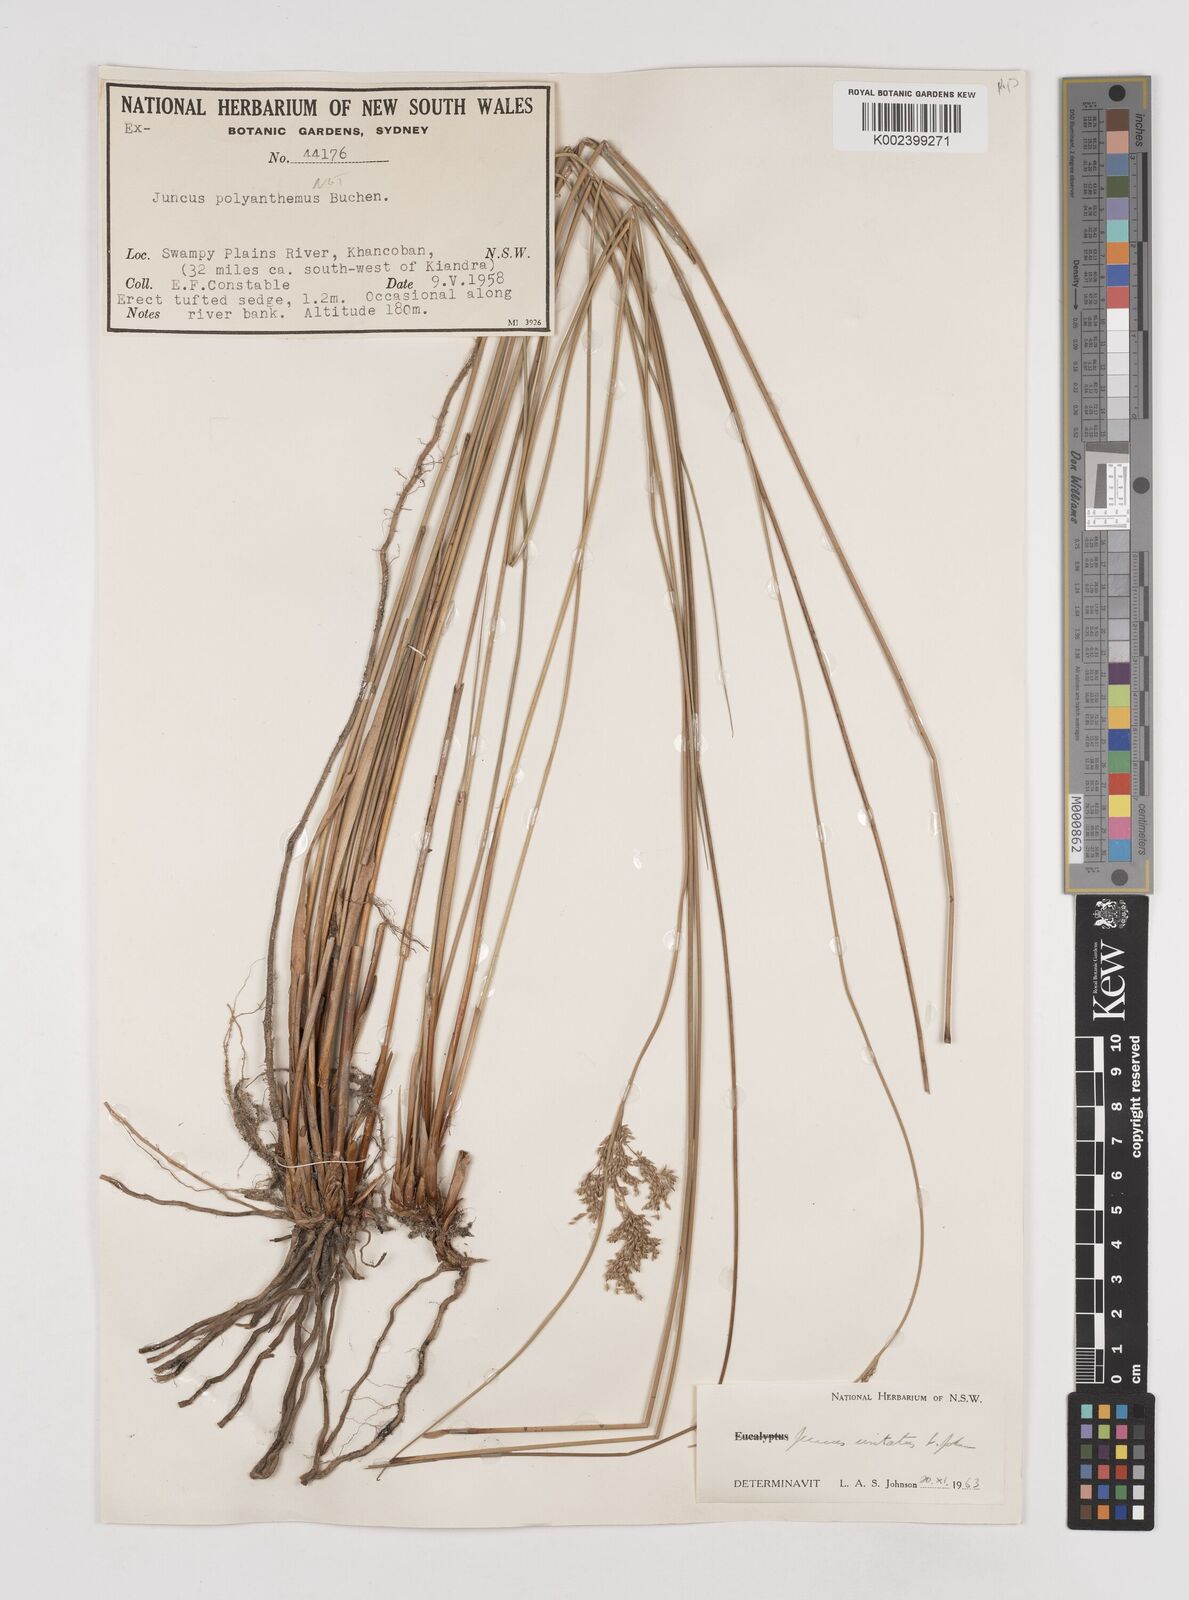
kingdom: Plantae
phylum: Tracheophyta
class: Liliopsida
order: Poales
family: Juncaceae
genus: Juncus
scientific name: Juncus usitatus
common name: Rush
